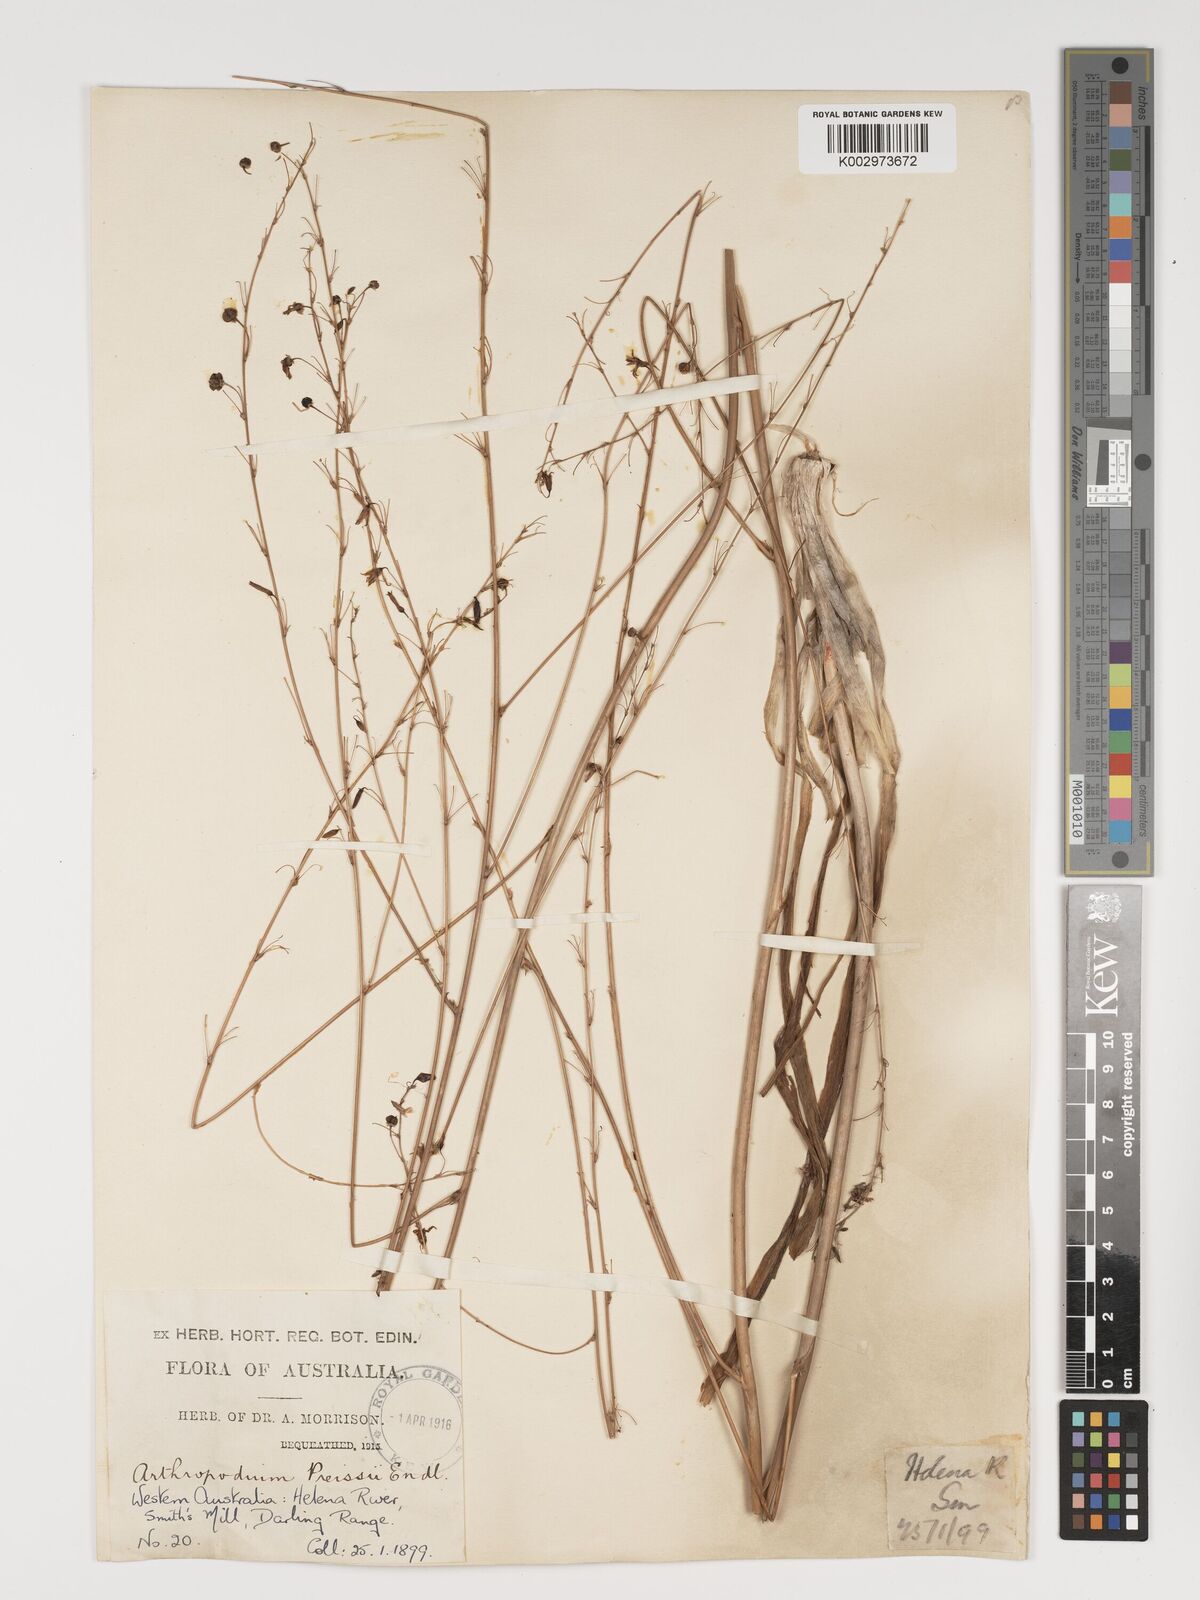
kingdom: Plantae
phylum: Tracheophyta
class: Liliopsida
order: Asparagales
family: Asparagaceae
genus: Dichopogon
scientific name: Dichopogon capillipes
